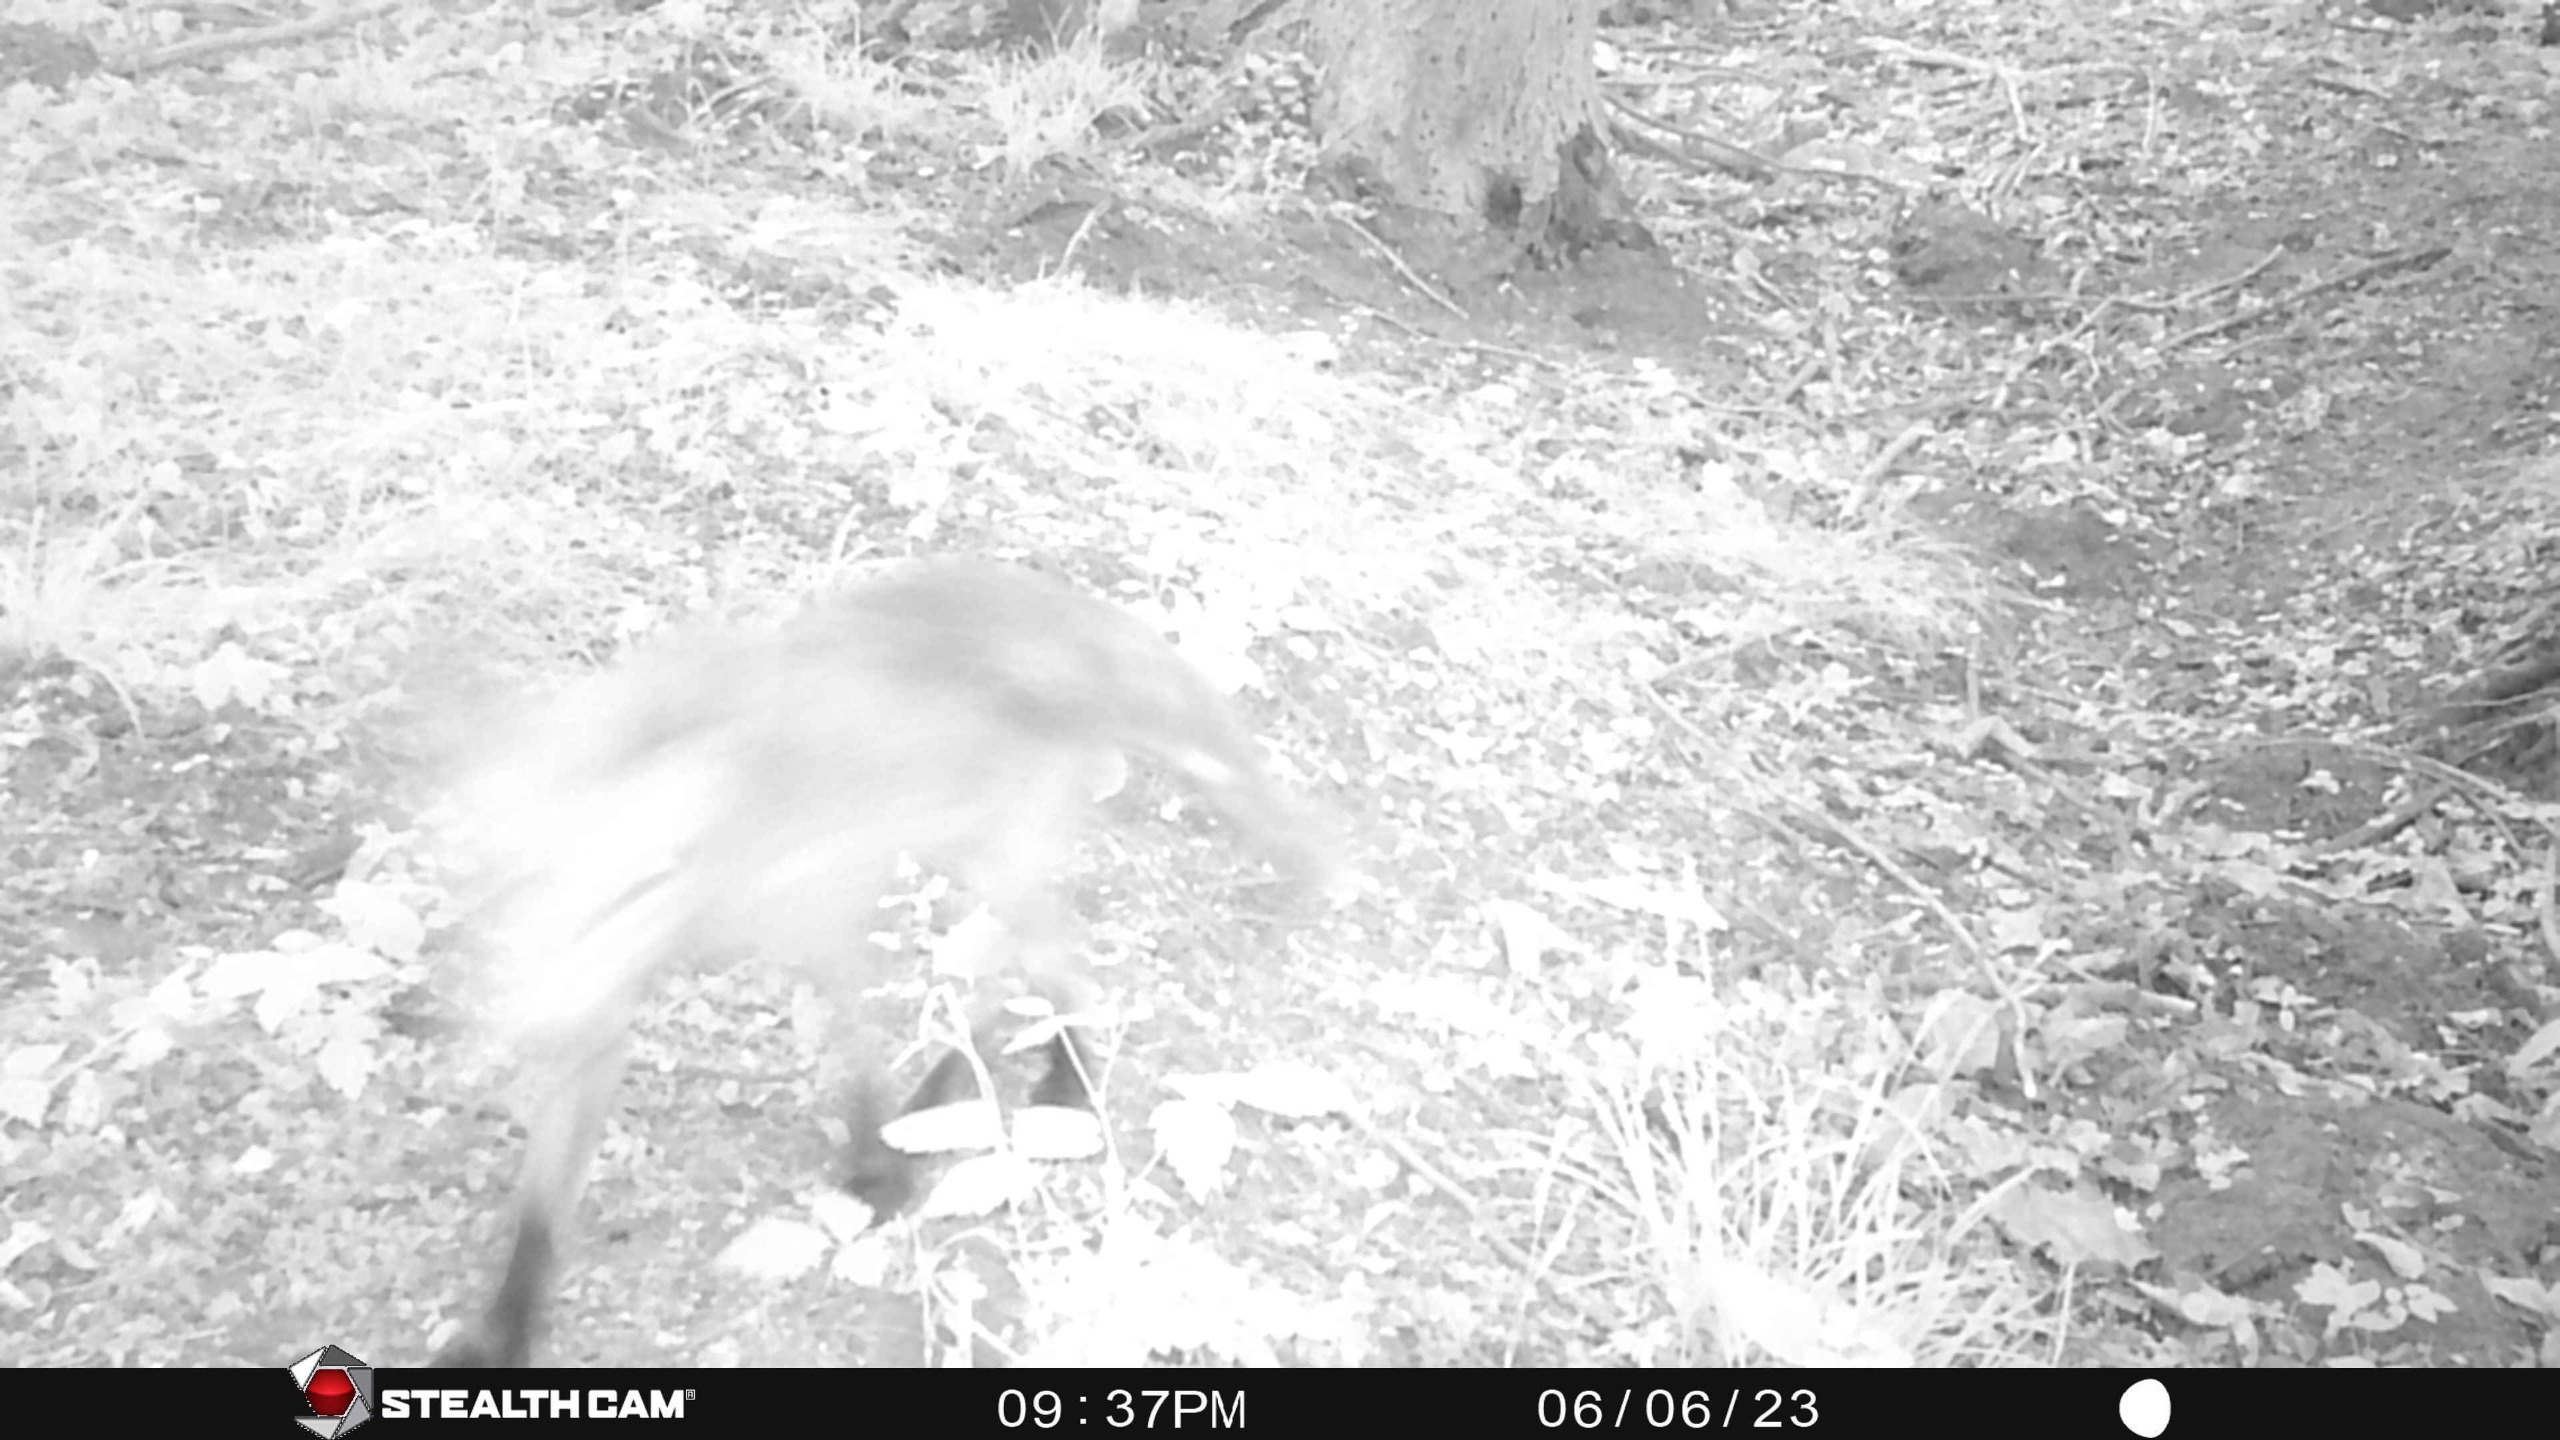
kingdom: Animalia
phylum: Chordata
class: Mammalia
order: Carnivora
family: Canidae
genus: Vulpes
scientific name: Vulpes vulpes
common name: Ræv
